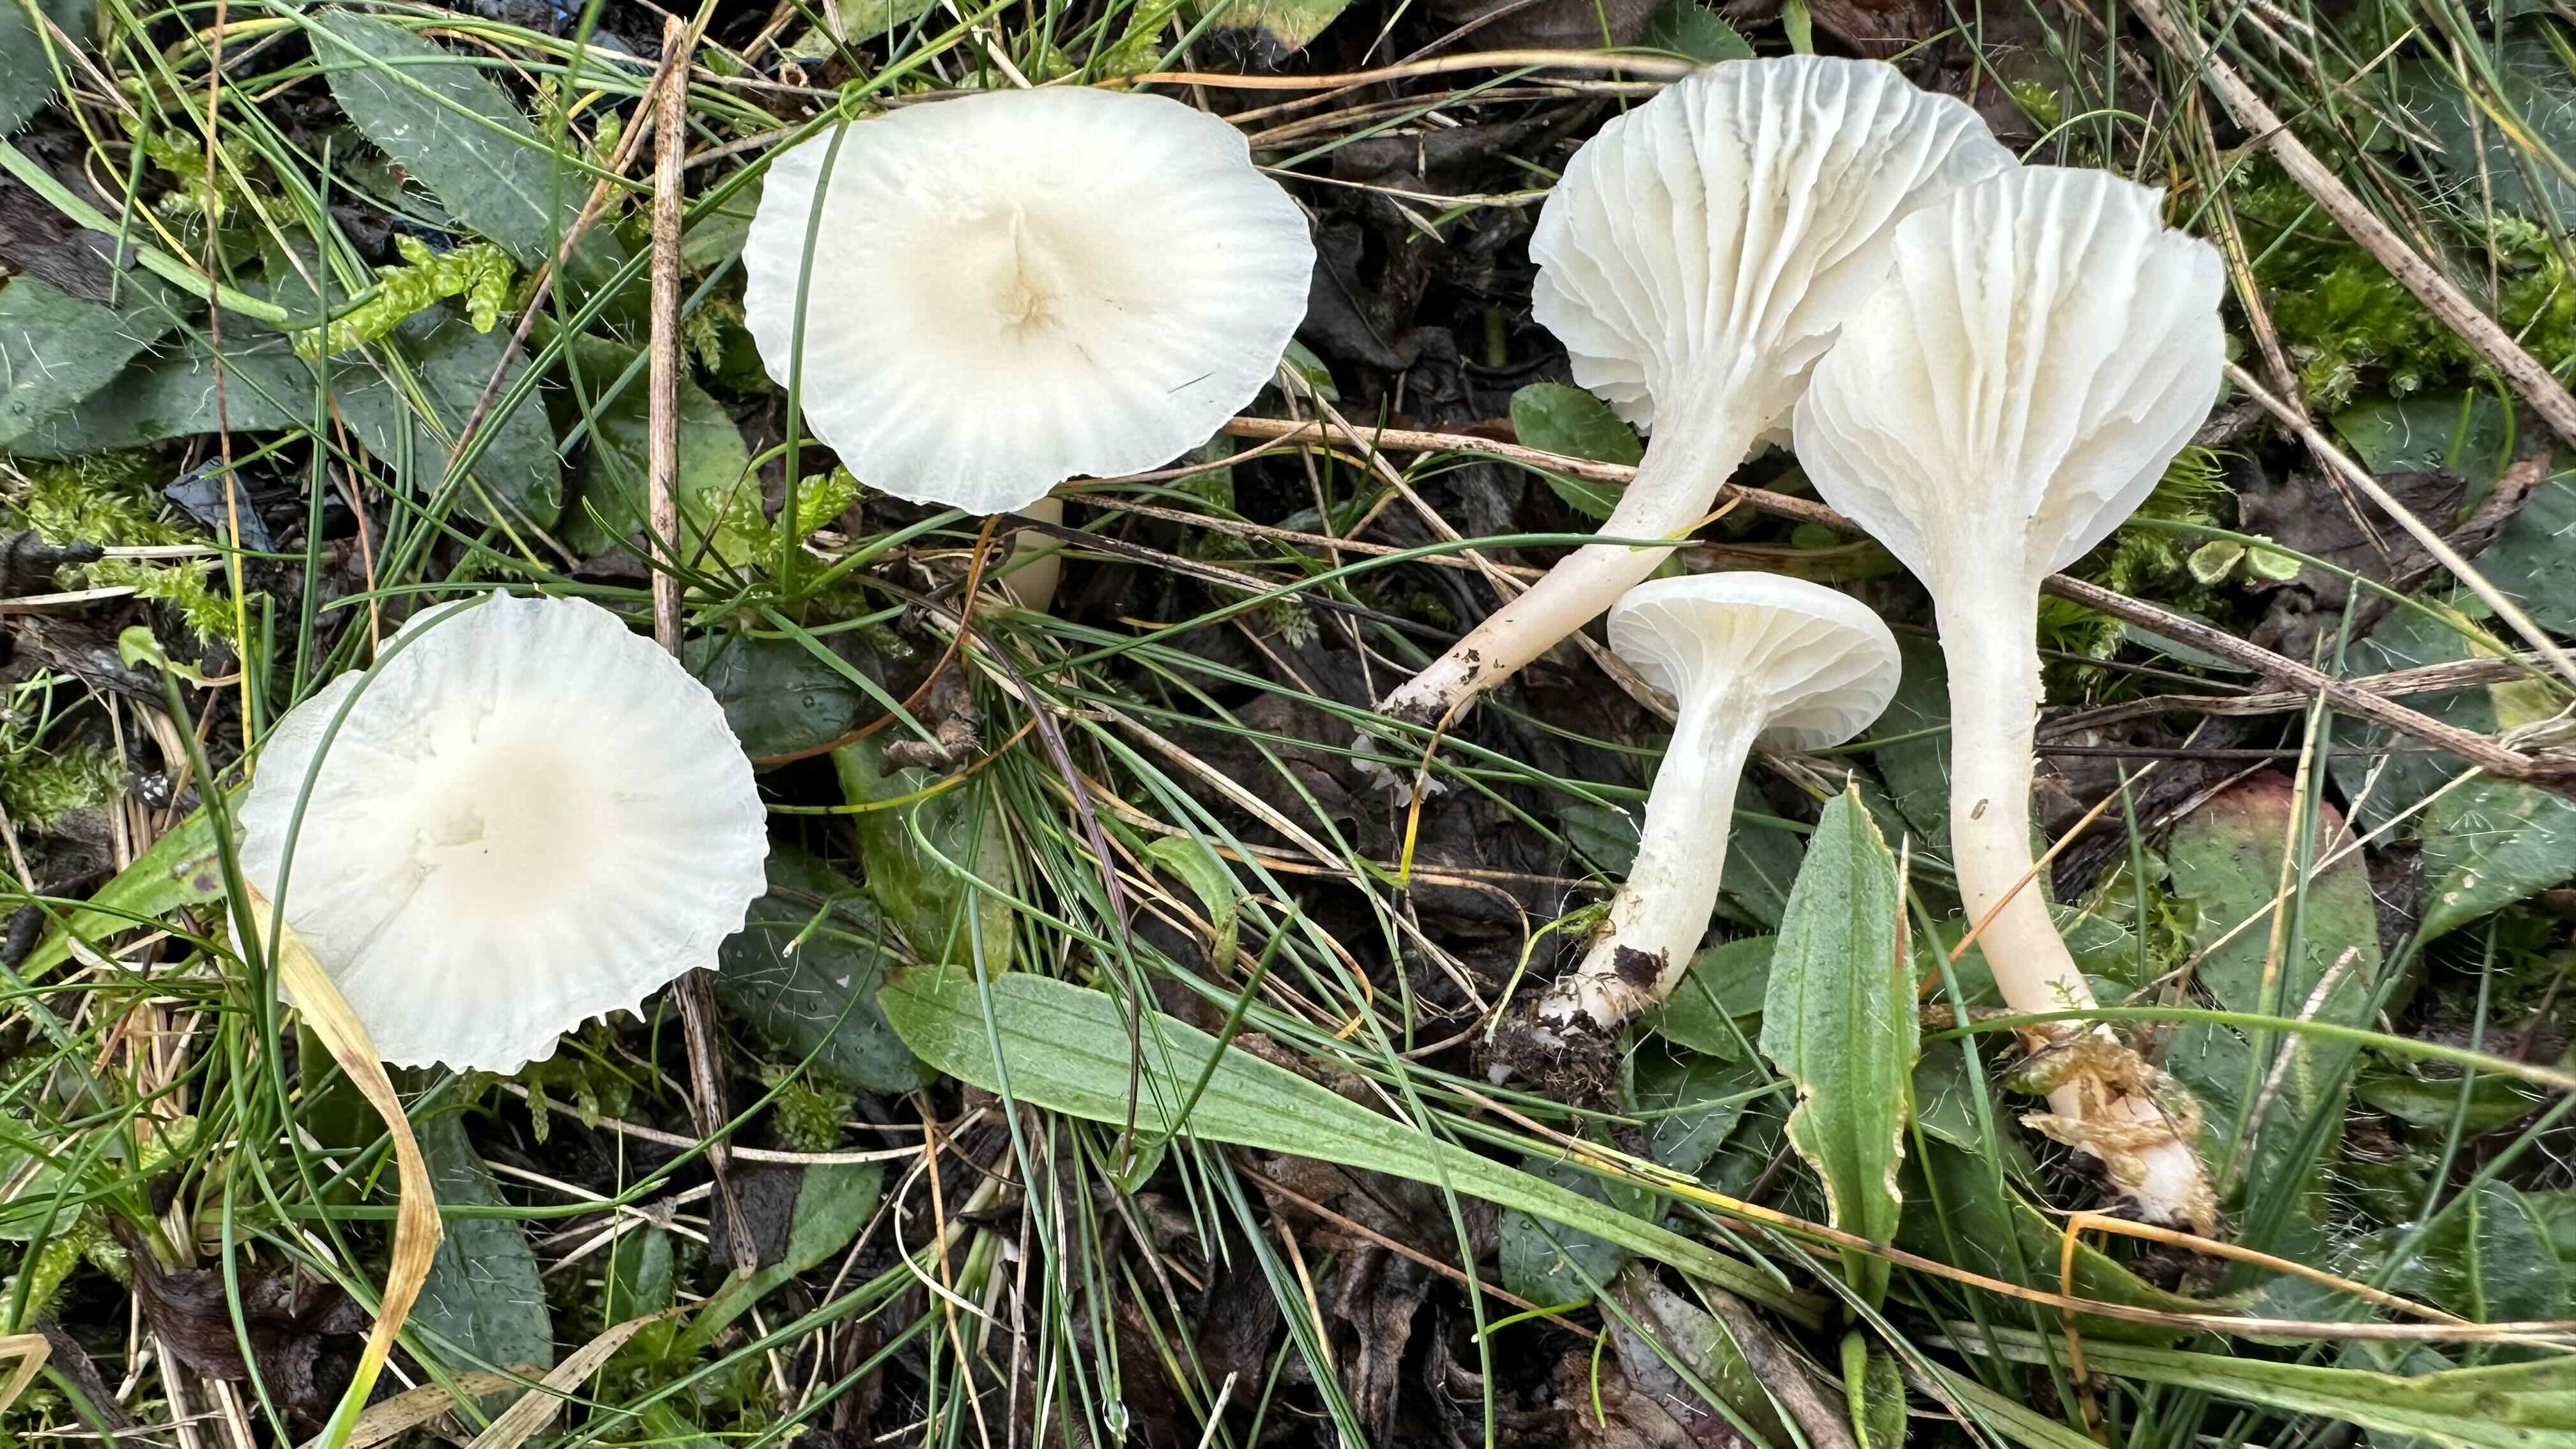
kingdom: Fungi
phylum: Basidiomycota
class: Agaricomycetes
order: Agaricales
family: Hygrophoraceae
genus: Cuphophyllus
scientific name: Cuphophyllus virgineus
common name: snehvid vokshat
